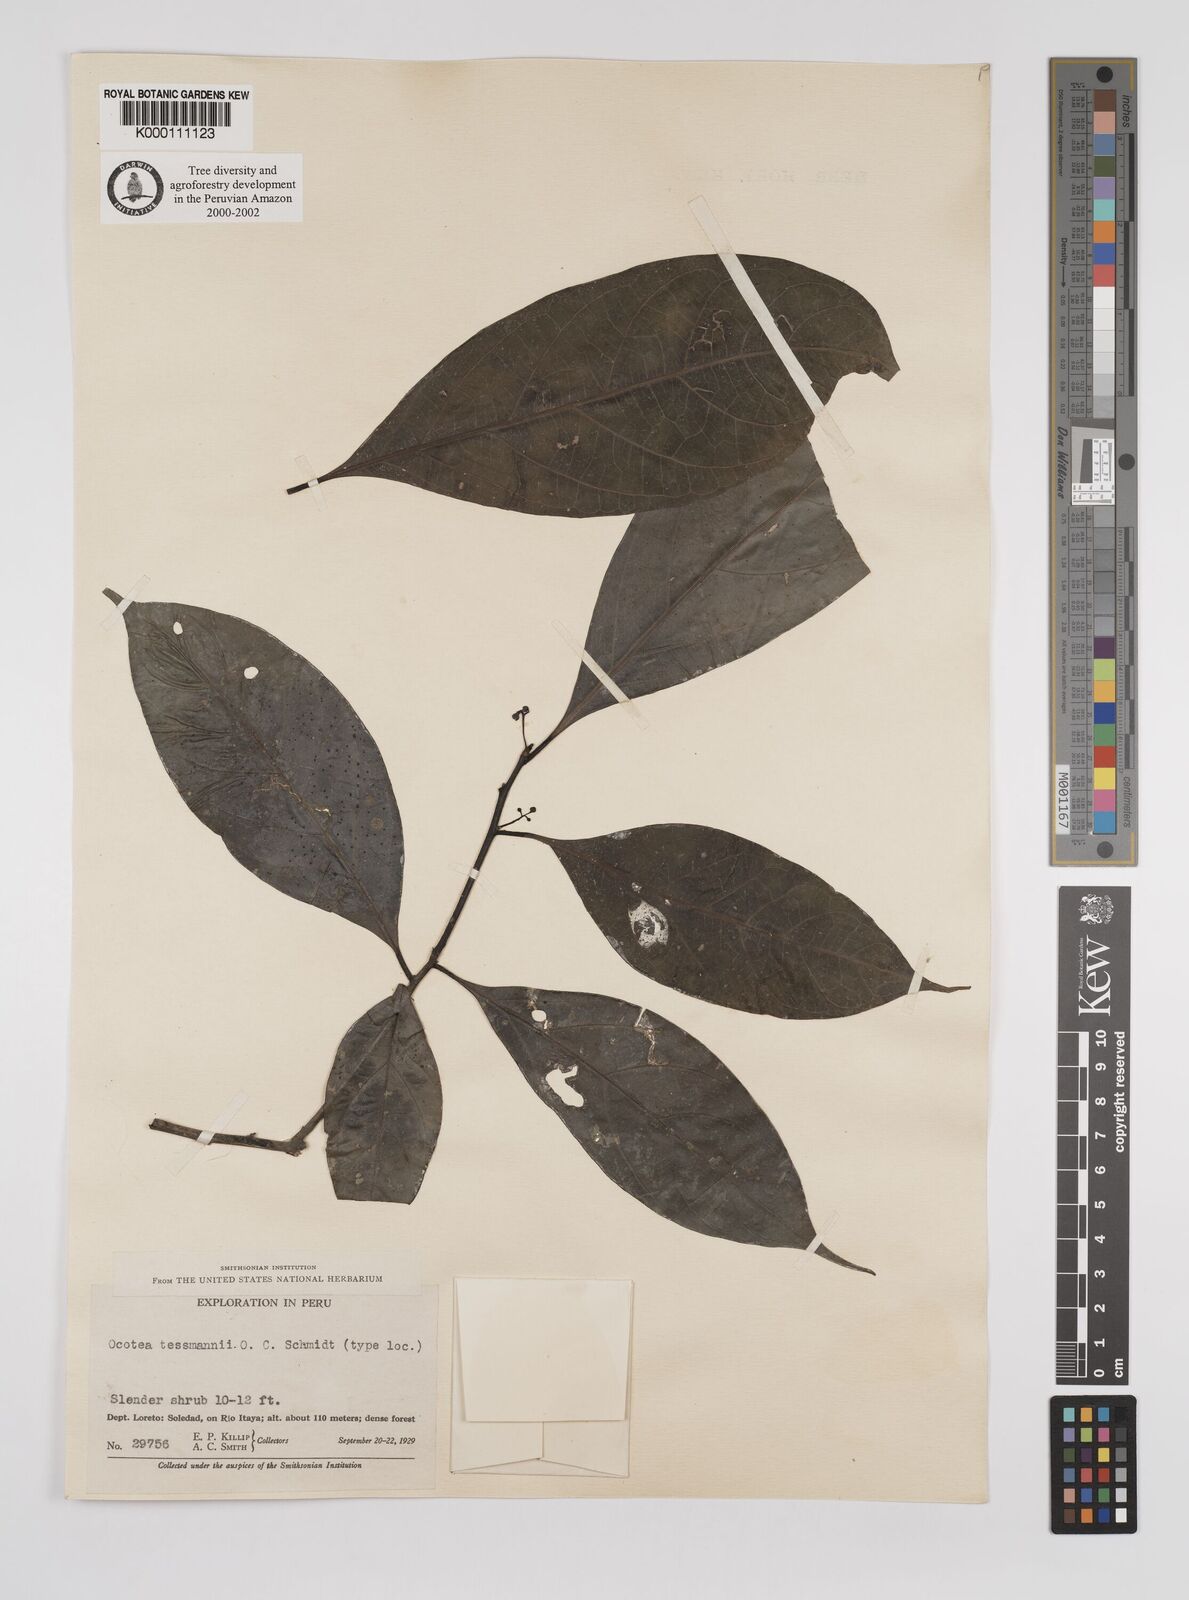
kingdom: Plantae
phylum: Tracheophyta
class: Magnoliopsida
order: Laurales
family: Lauraceae
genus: Ocotea
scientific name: Ocotea tessmannii
